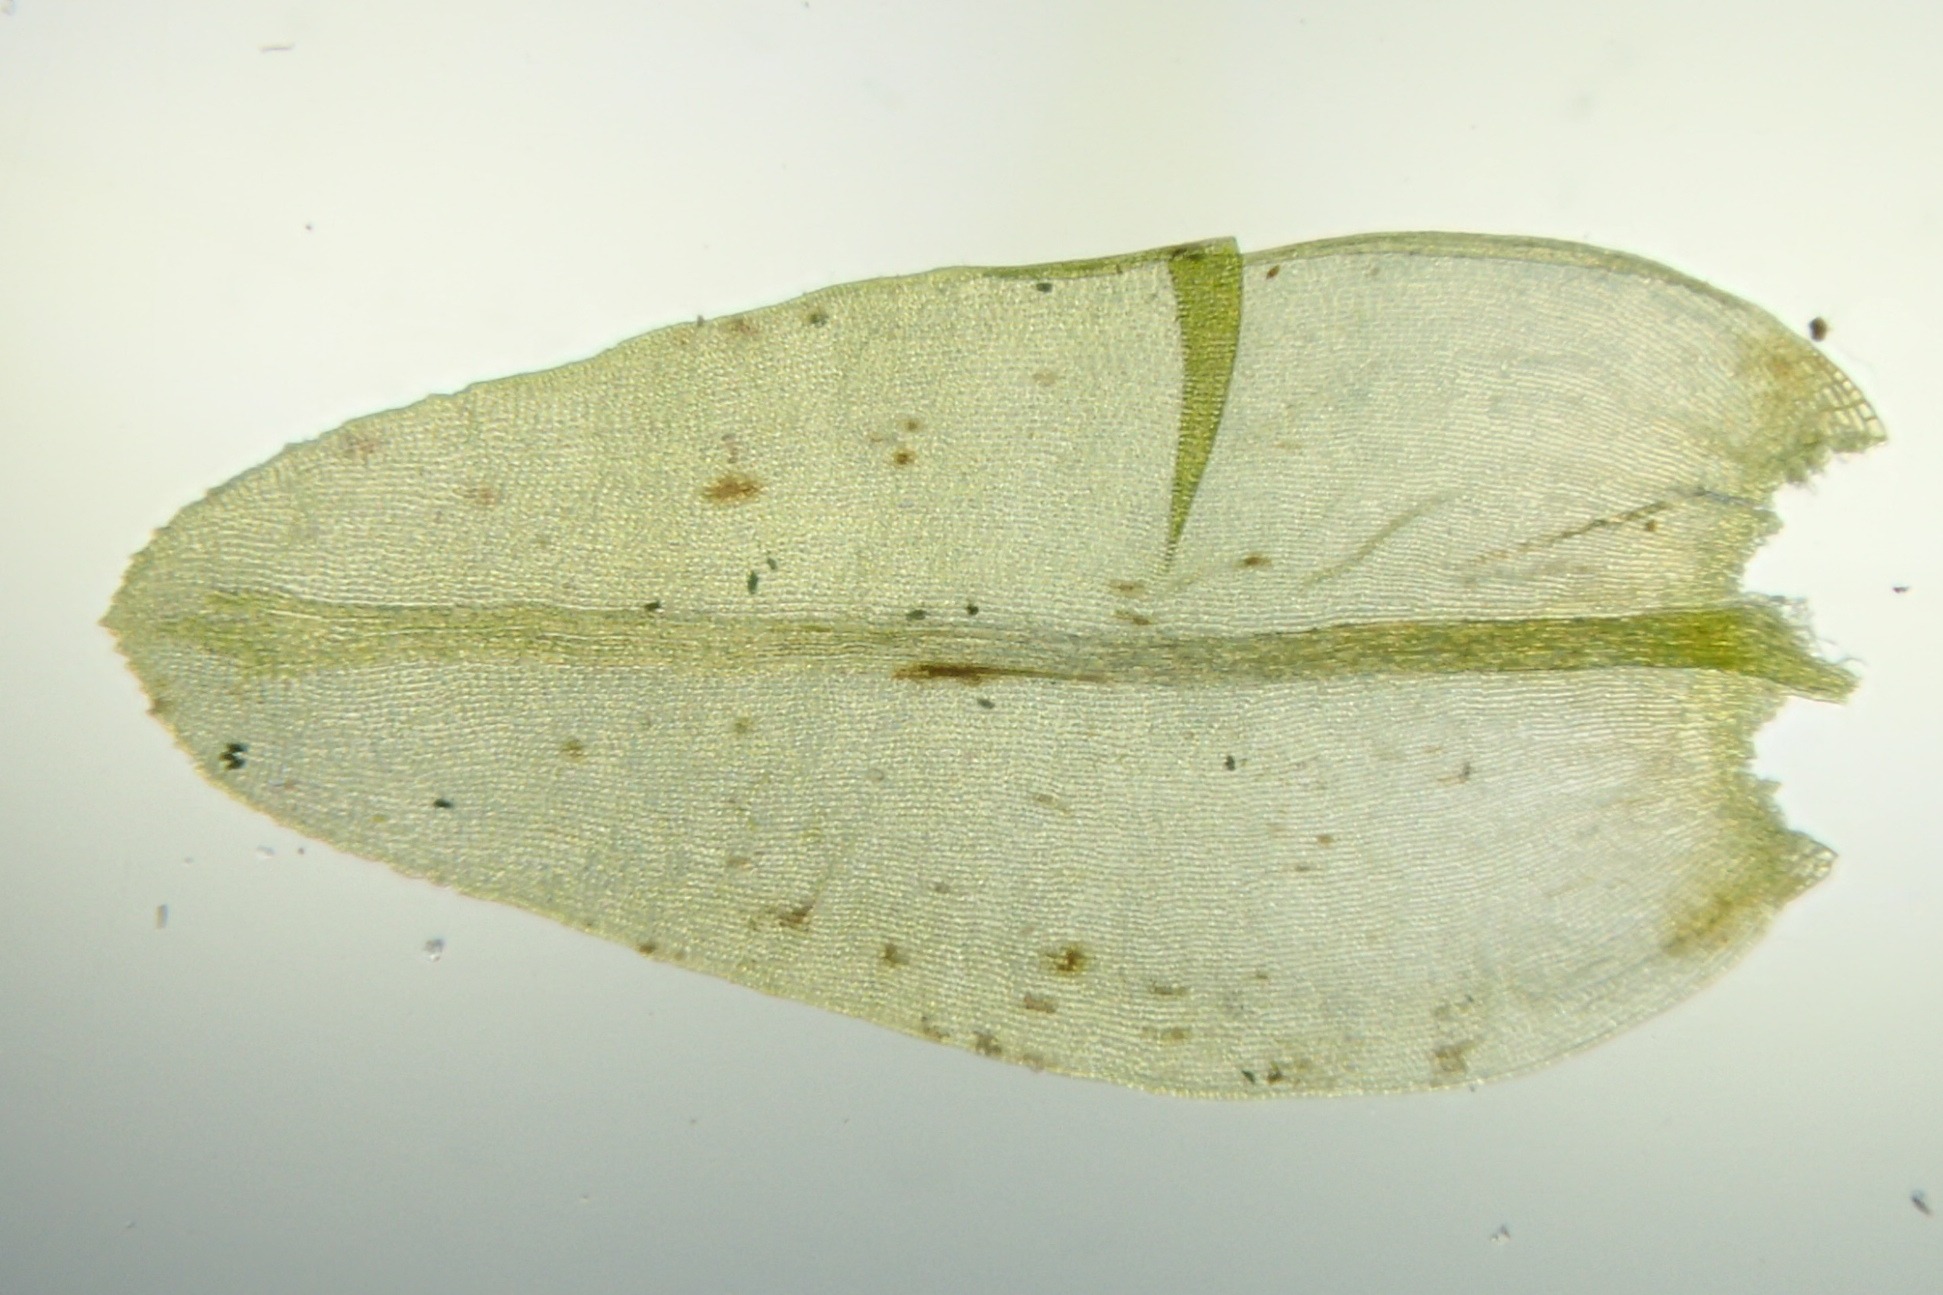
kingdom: Plantae
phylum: Bryophyta
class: Bryopsida
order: Grimmiales
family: Grimmiaceae
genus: Codriophorus
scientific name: Codriophorus acicularis
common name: Butbladet børstemos
